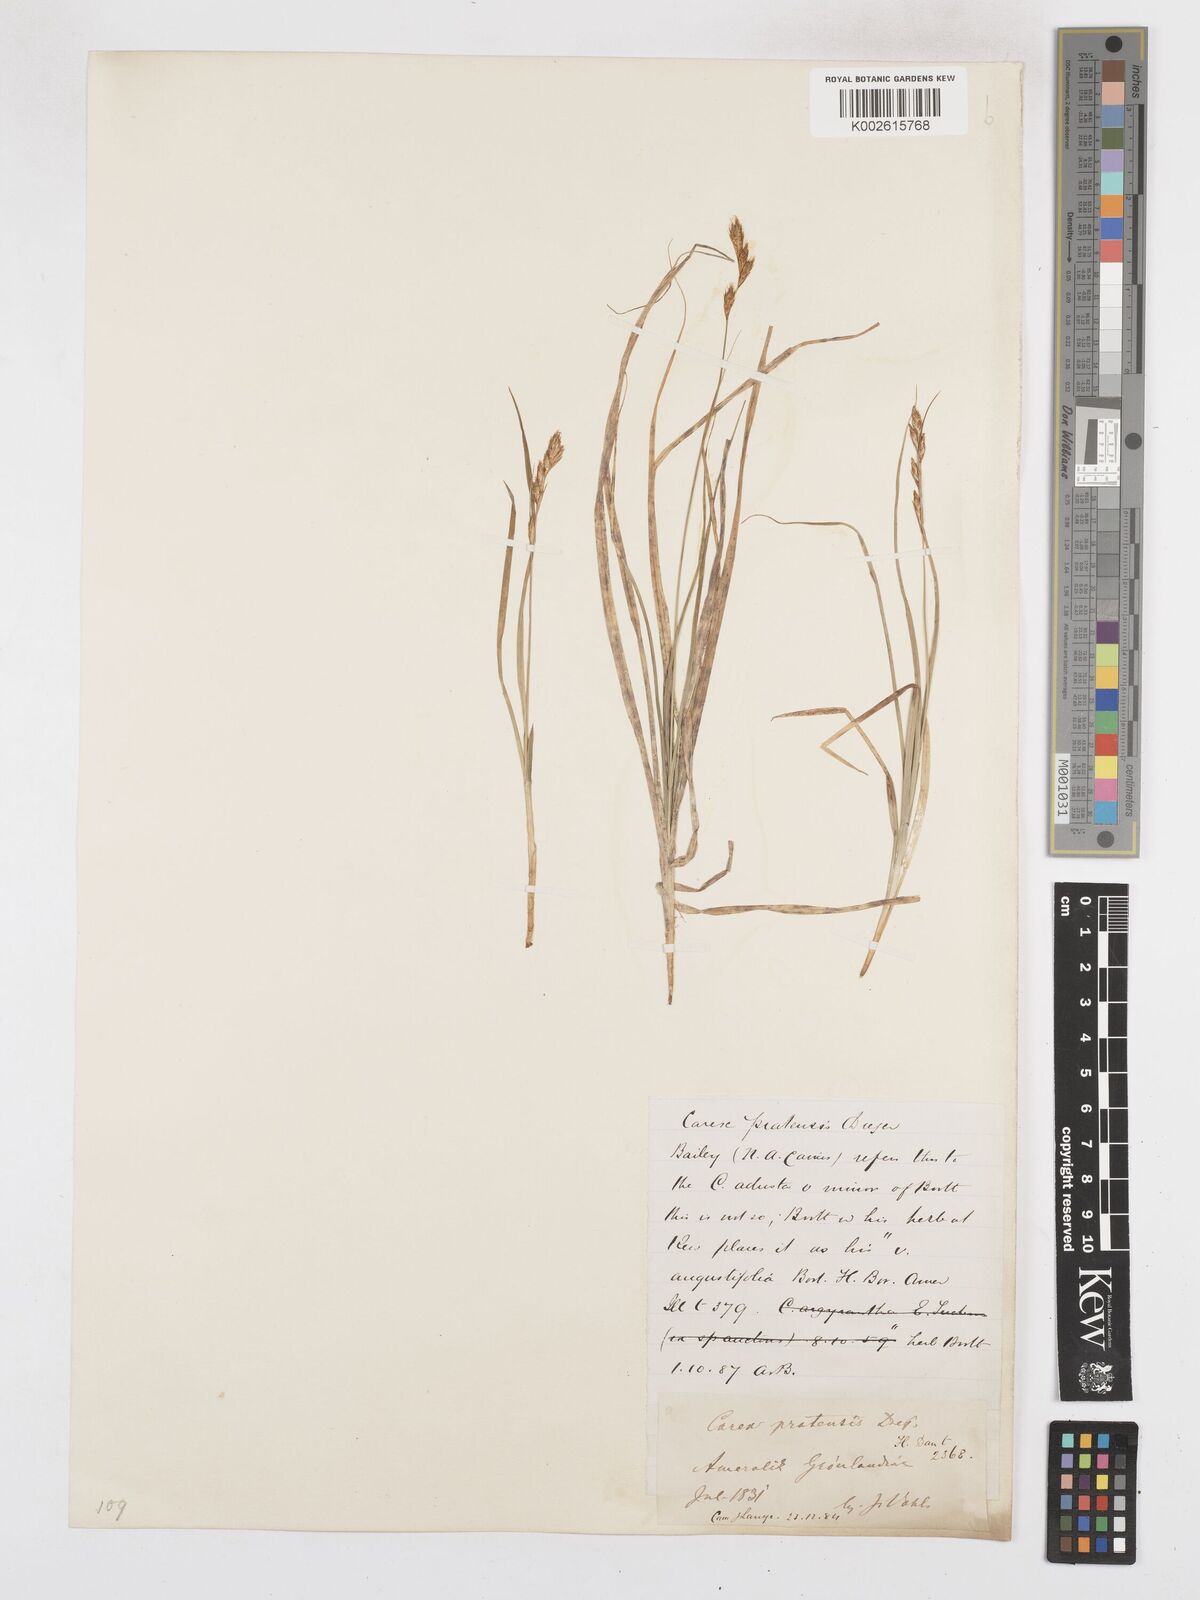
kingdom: Plantae
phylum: Tracheophyta
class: Liliopsida
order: Poales
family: Cyperaceae
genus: Carex
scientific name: Carex praticola
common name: Large-fruited oval sedge
